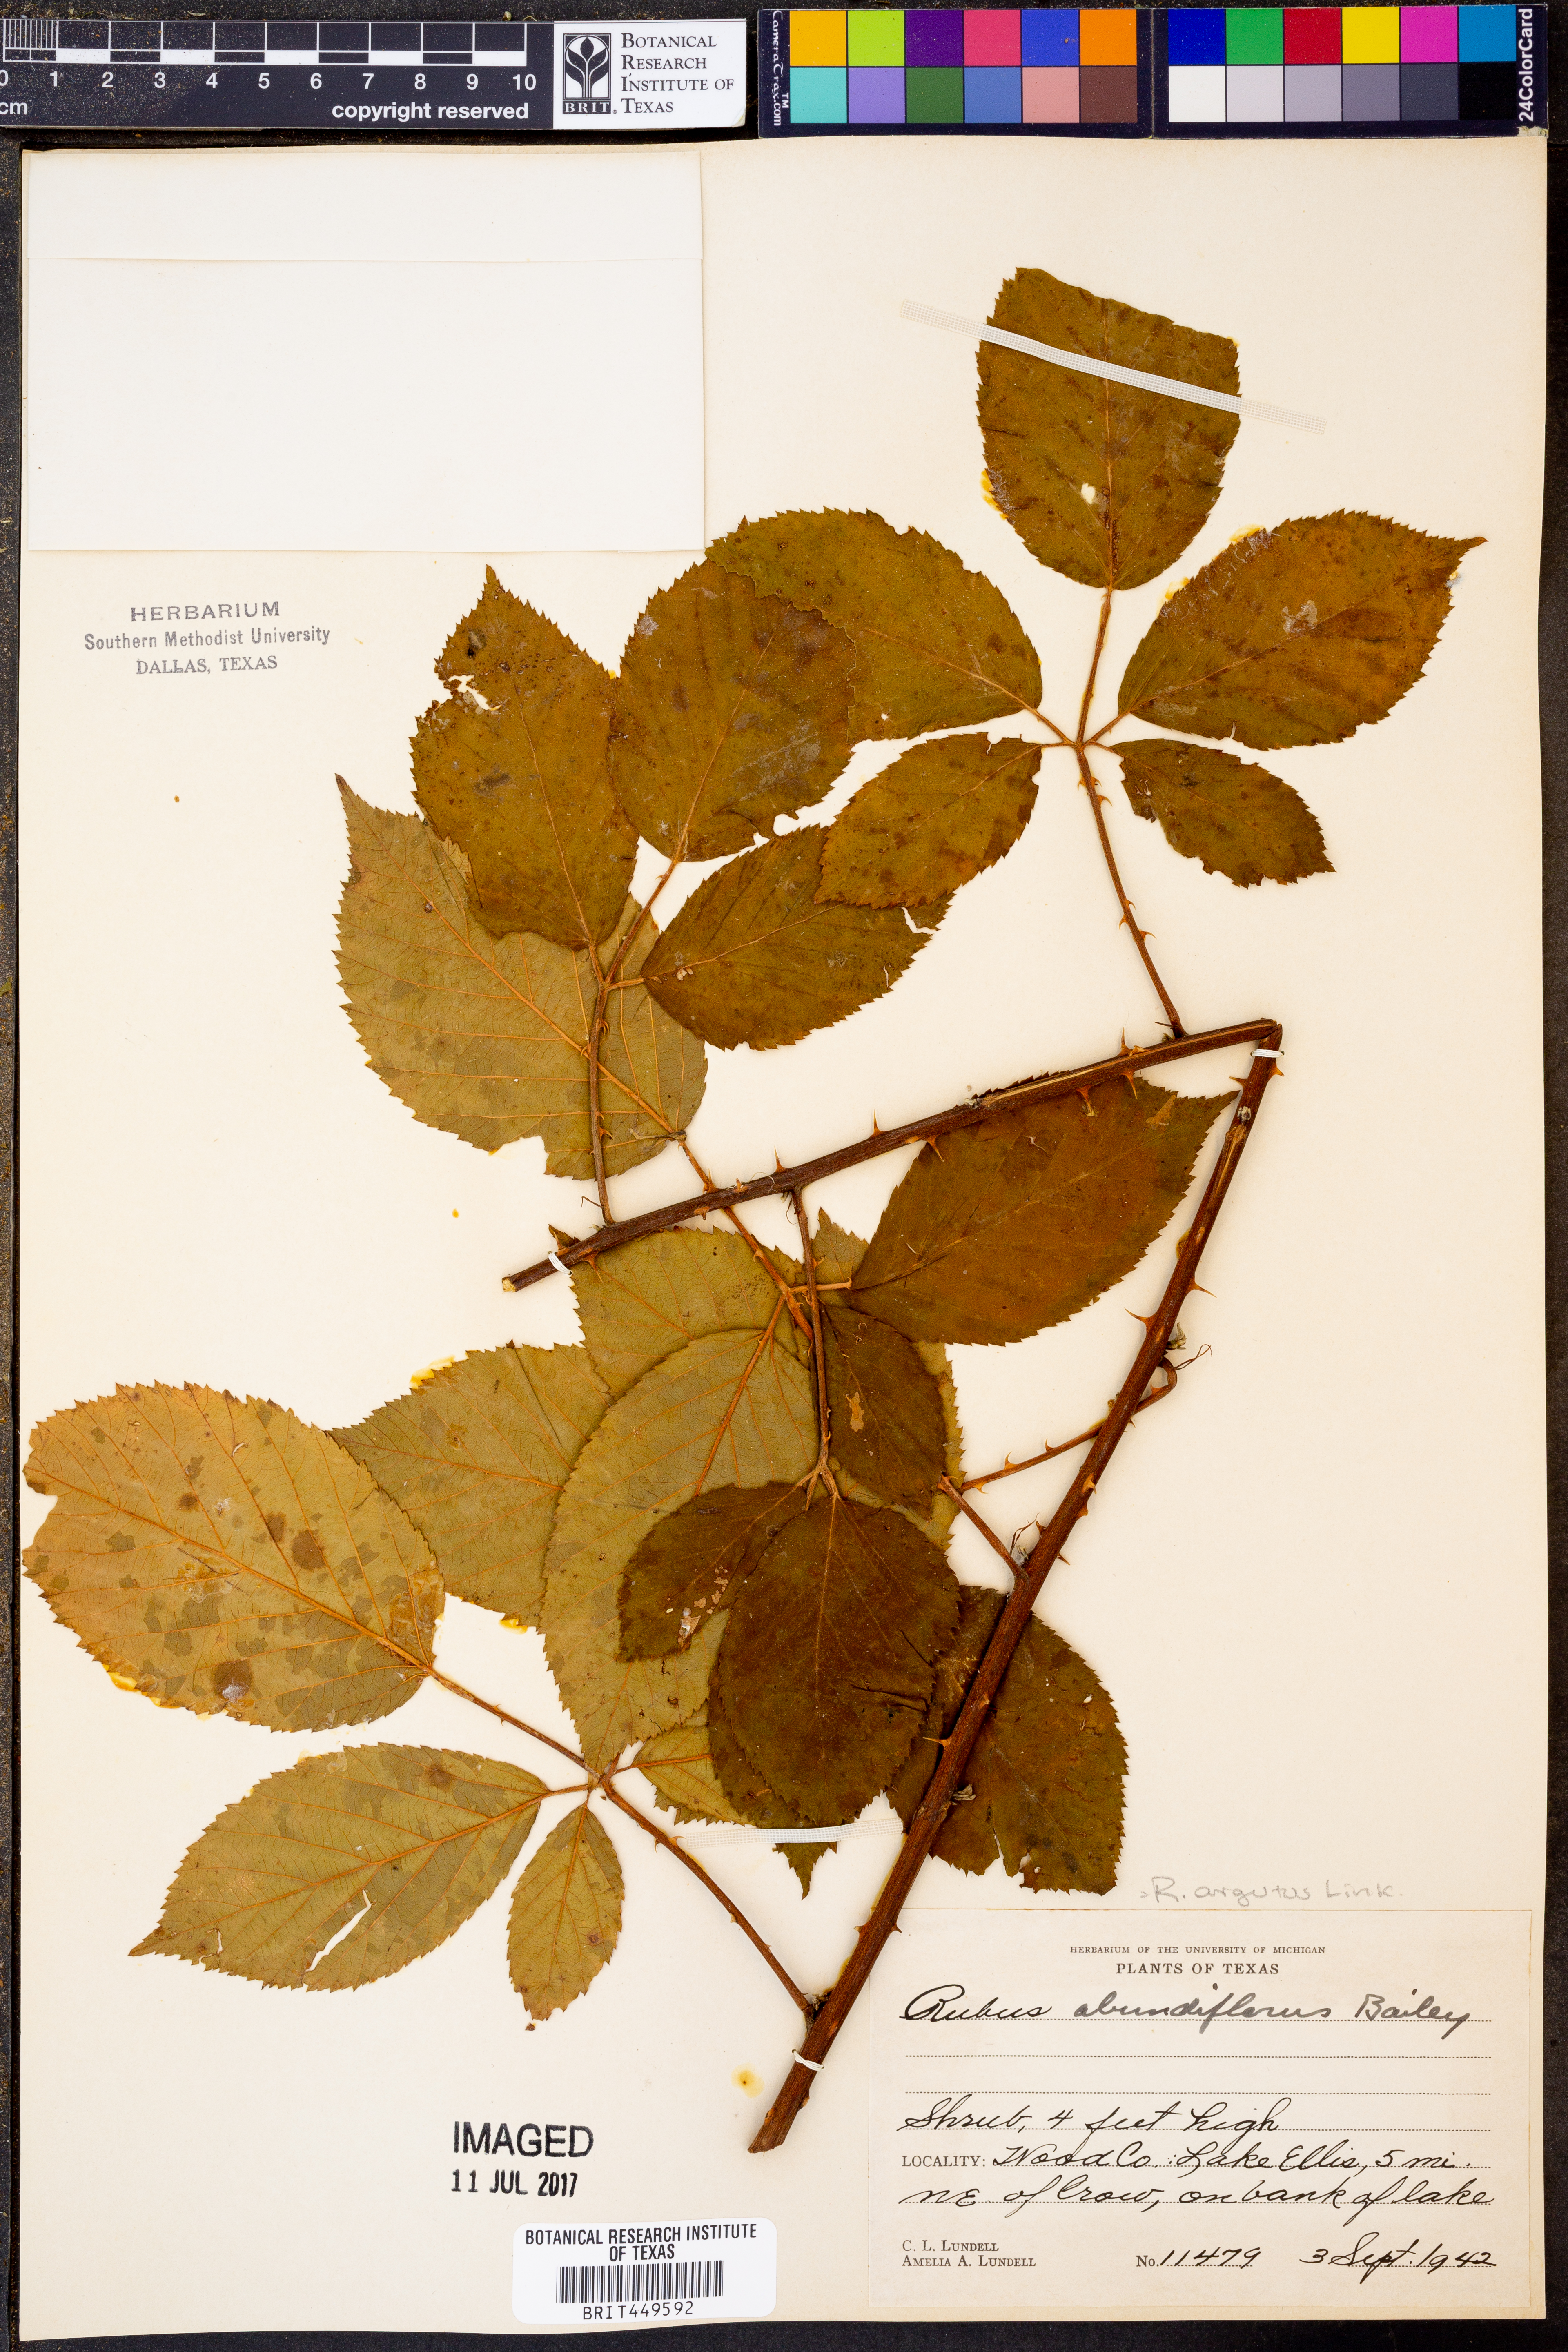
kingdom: Plantae
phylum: Tracheophyta
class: Magnoliopsida
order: Rosales
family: Rosaceae
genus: Rubus
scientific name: Rubus argutus
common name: Sawtooth blackberry
